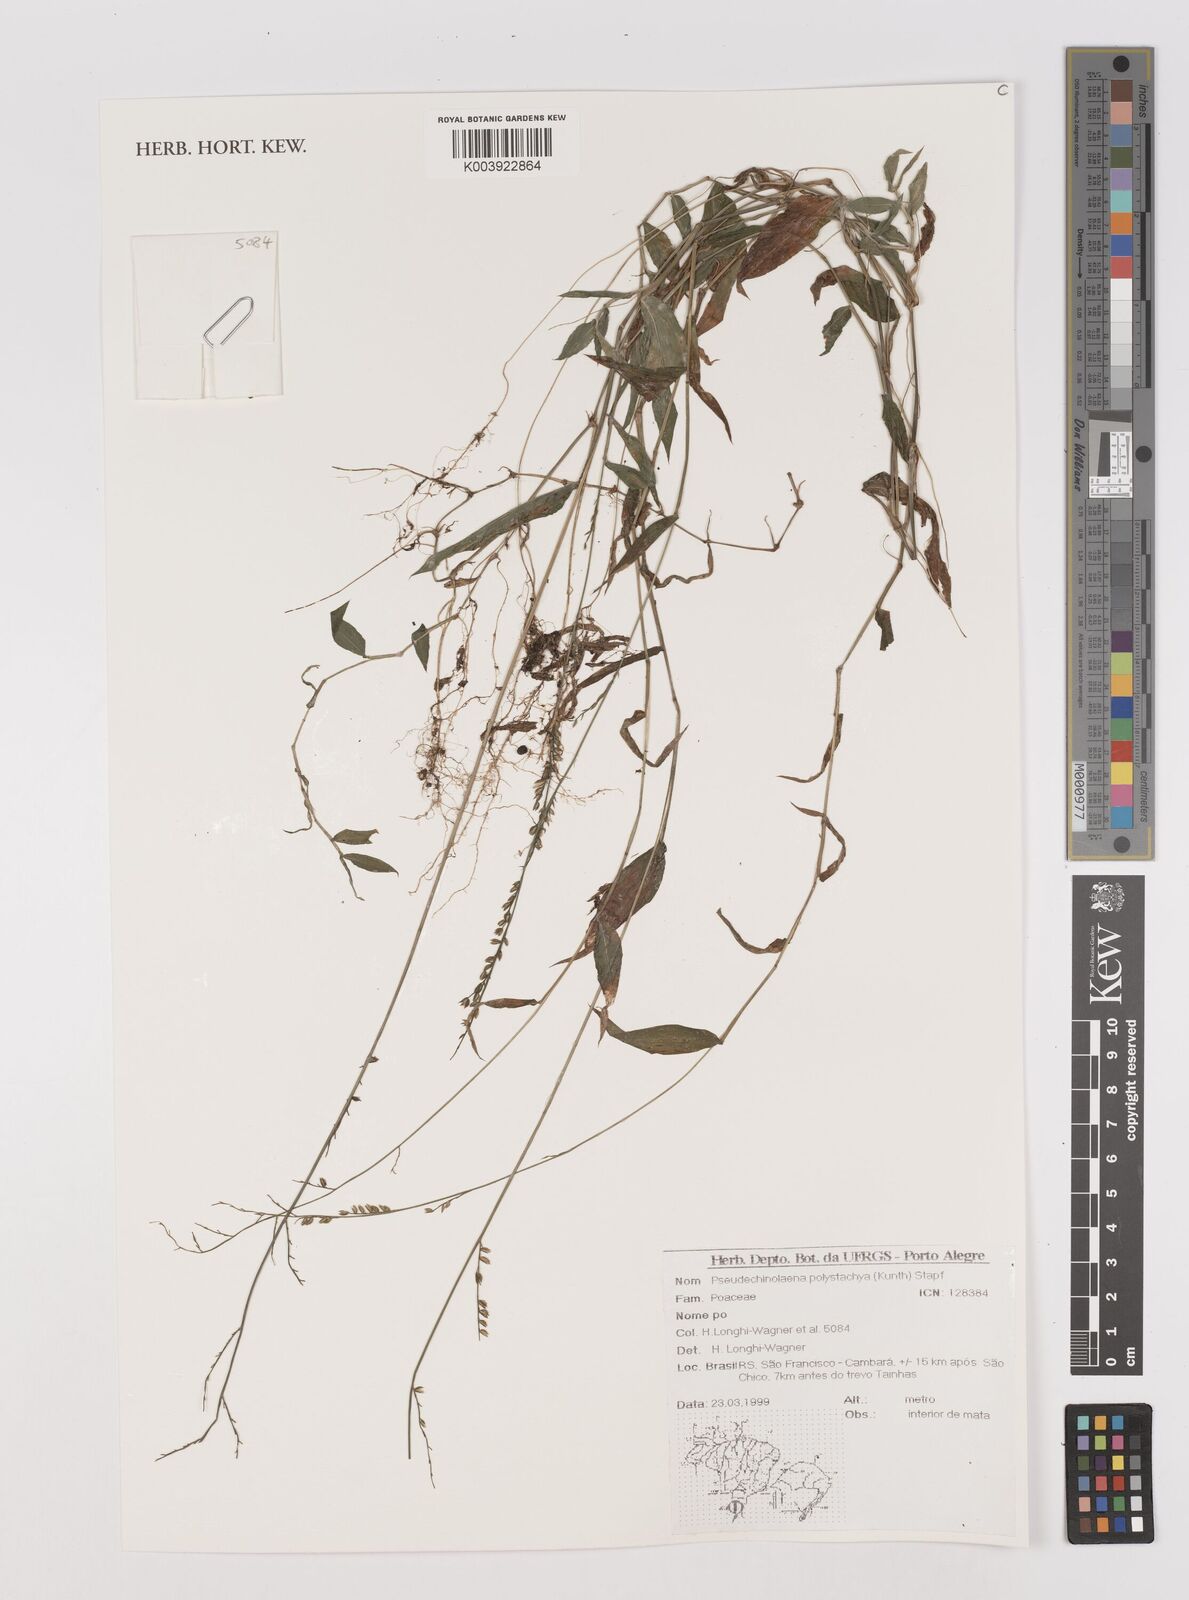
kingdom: Plantae
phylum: Tracheophyta
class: Liliopsida
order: Poales
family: Poaceae
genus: Pseudechinolaena
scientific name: Pseudechinolaena polystachya
